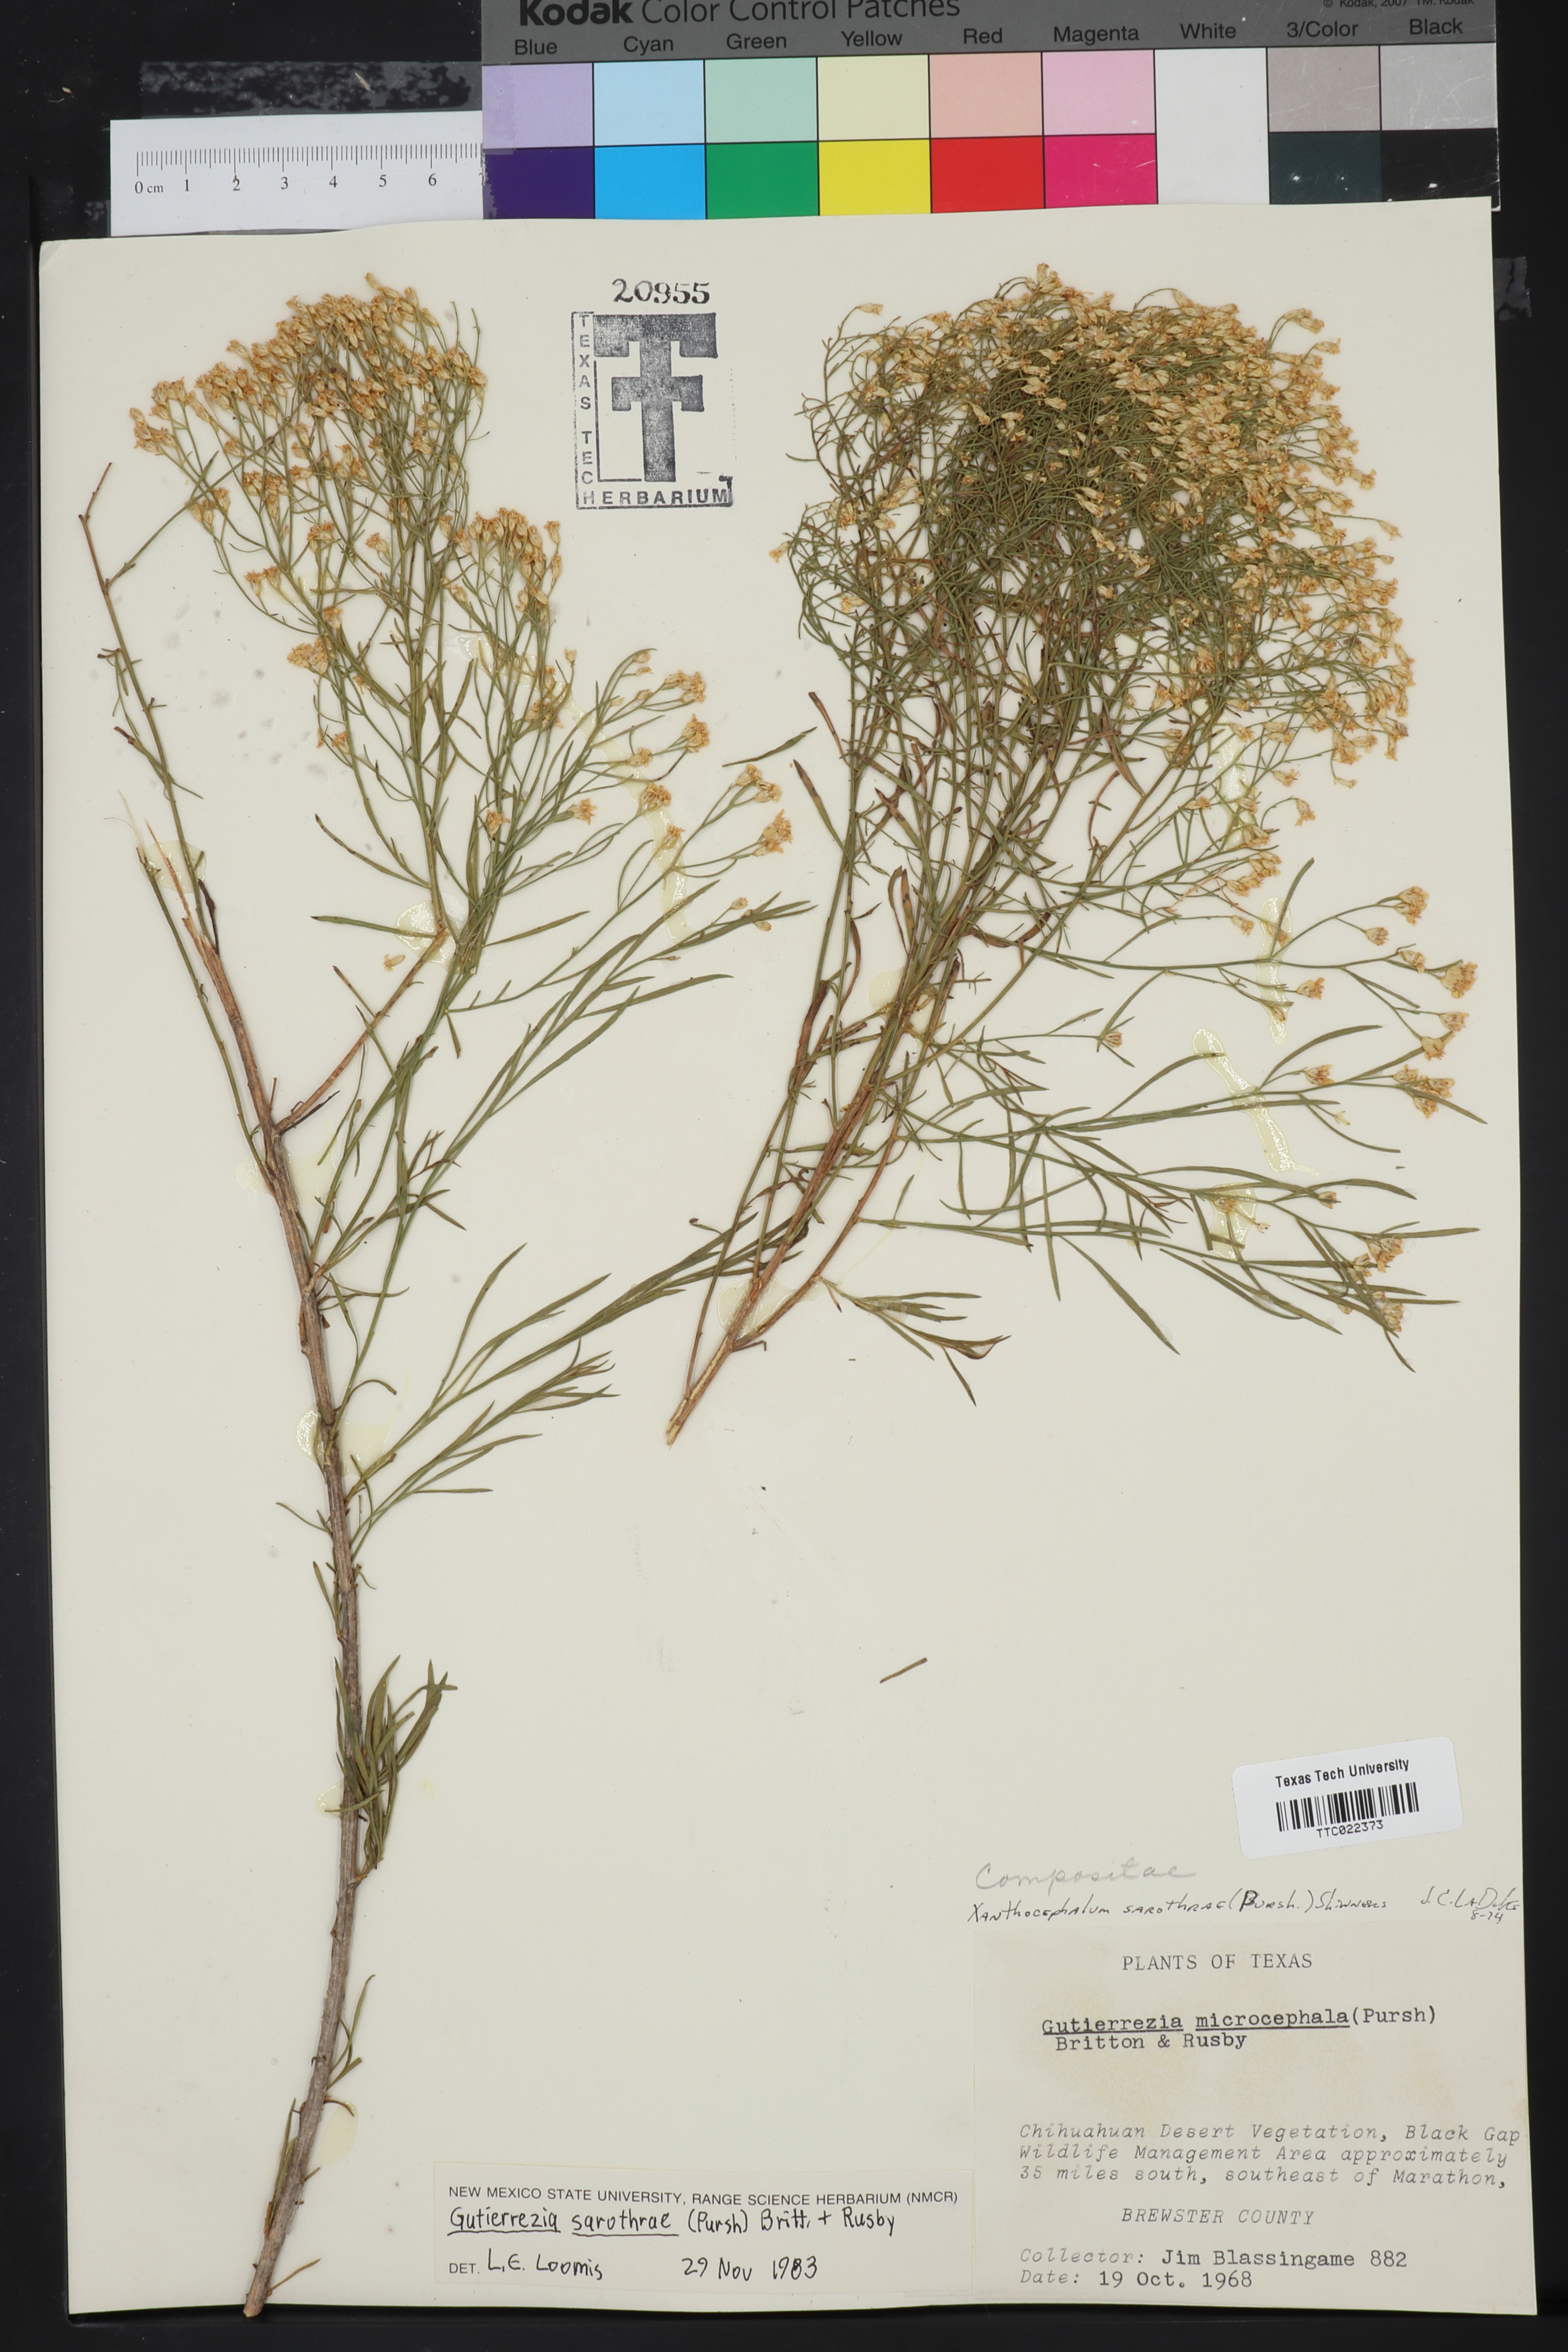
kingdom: Plantae
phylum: Tracheophyta
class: Magnoliopsida
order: Asterales
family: Asteraceae
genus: Gutierrezia
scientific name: Gutierrezia sarothrae
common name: Broom snakeweed
